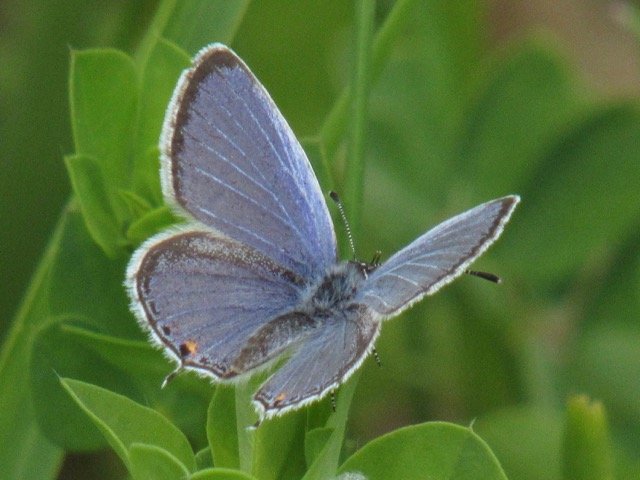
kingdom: Animalia
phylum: Arthropoda
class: Insecta
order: Lepidoptera
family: Lycaenidae
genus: Elkalyce
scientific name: Elkalyce comyntas
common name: Eastern Tailed-Blue
